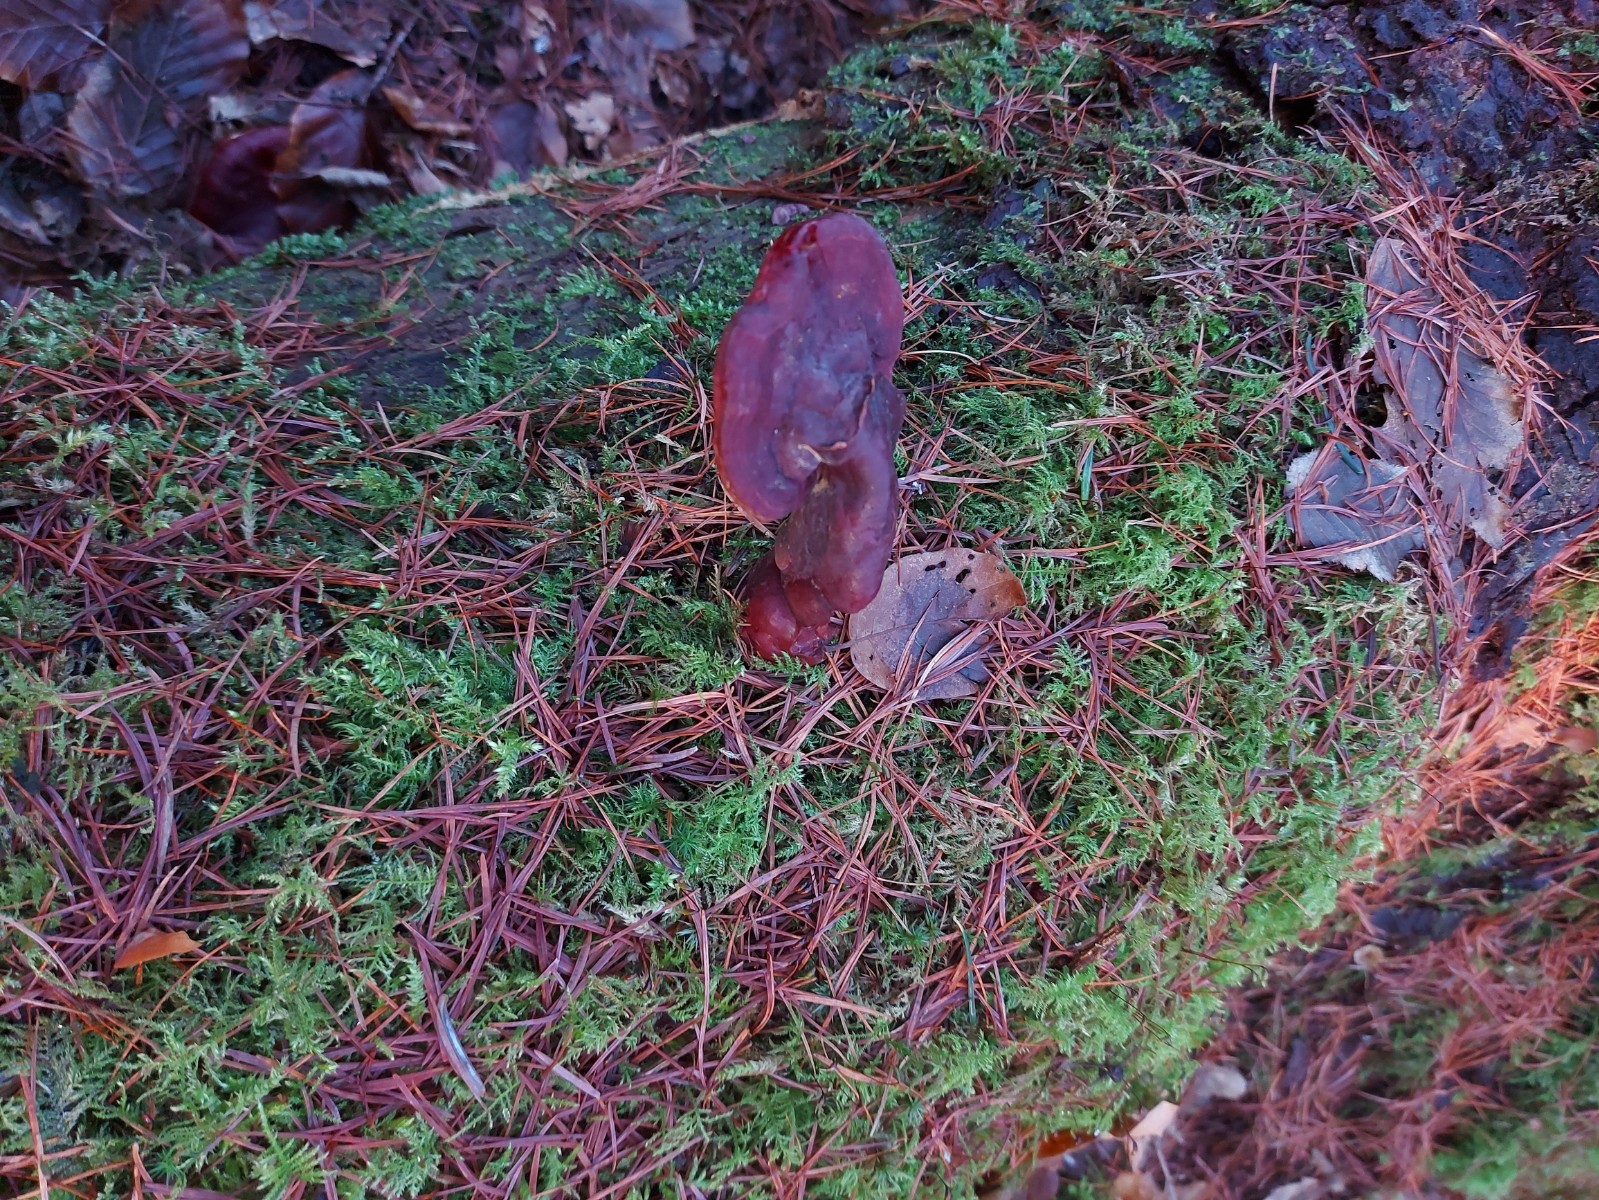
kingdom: Fungi
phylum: Basidiomycota
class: Agaricomycetes
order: Polyporales
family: Polyporaceae
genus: Ganoderma
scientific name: Ganoderma lucidum
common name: skinnende lakporesvamp
